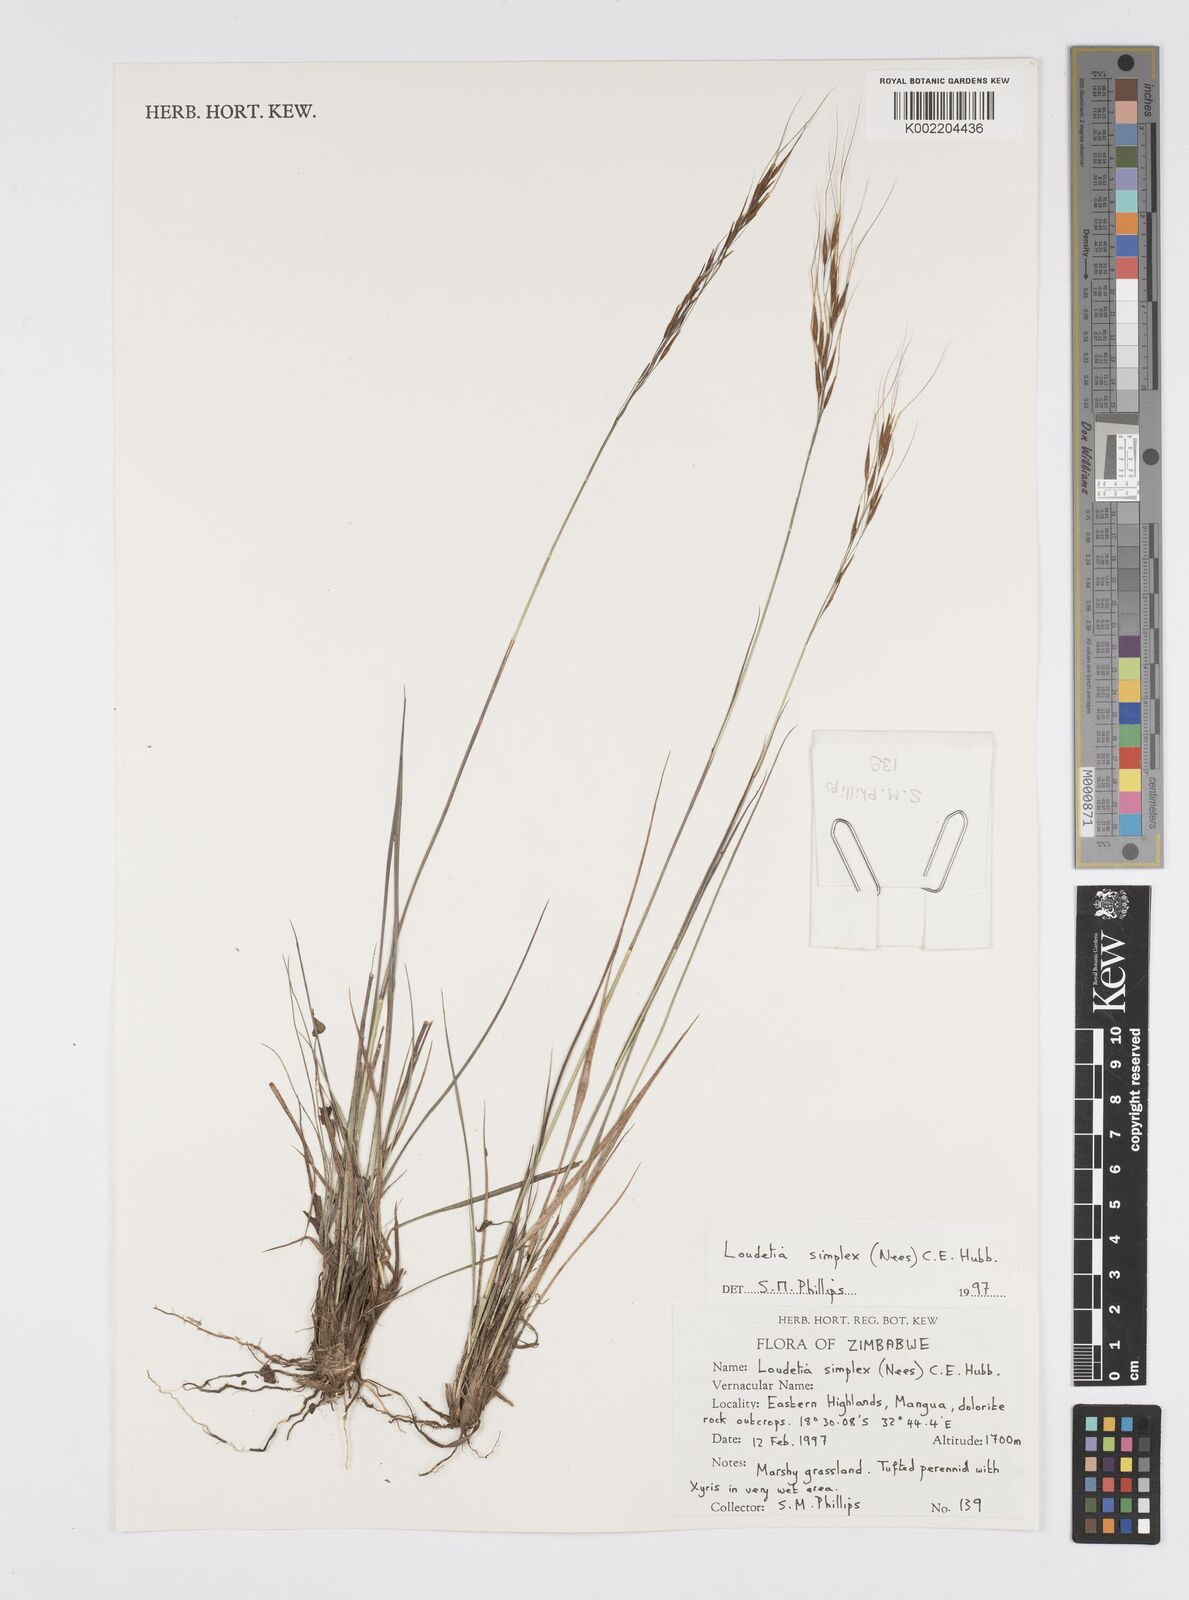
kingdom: Plantae
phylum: Tracheophyta
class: Liliopsida
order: Poales
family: Poaceae
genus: Loudetia
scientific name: Loudetia simplex
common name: Common russet grass
